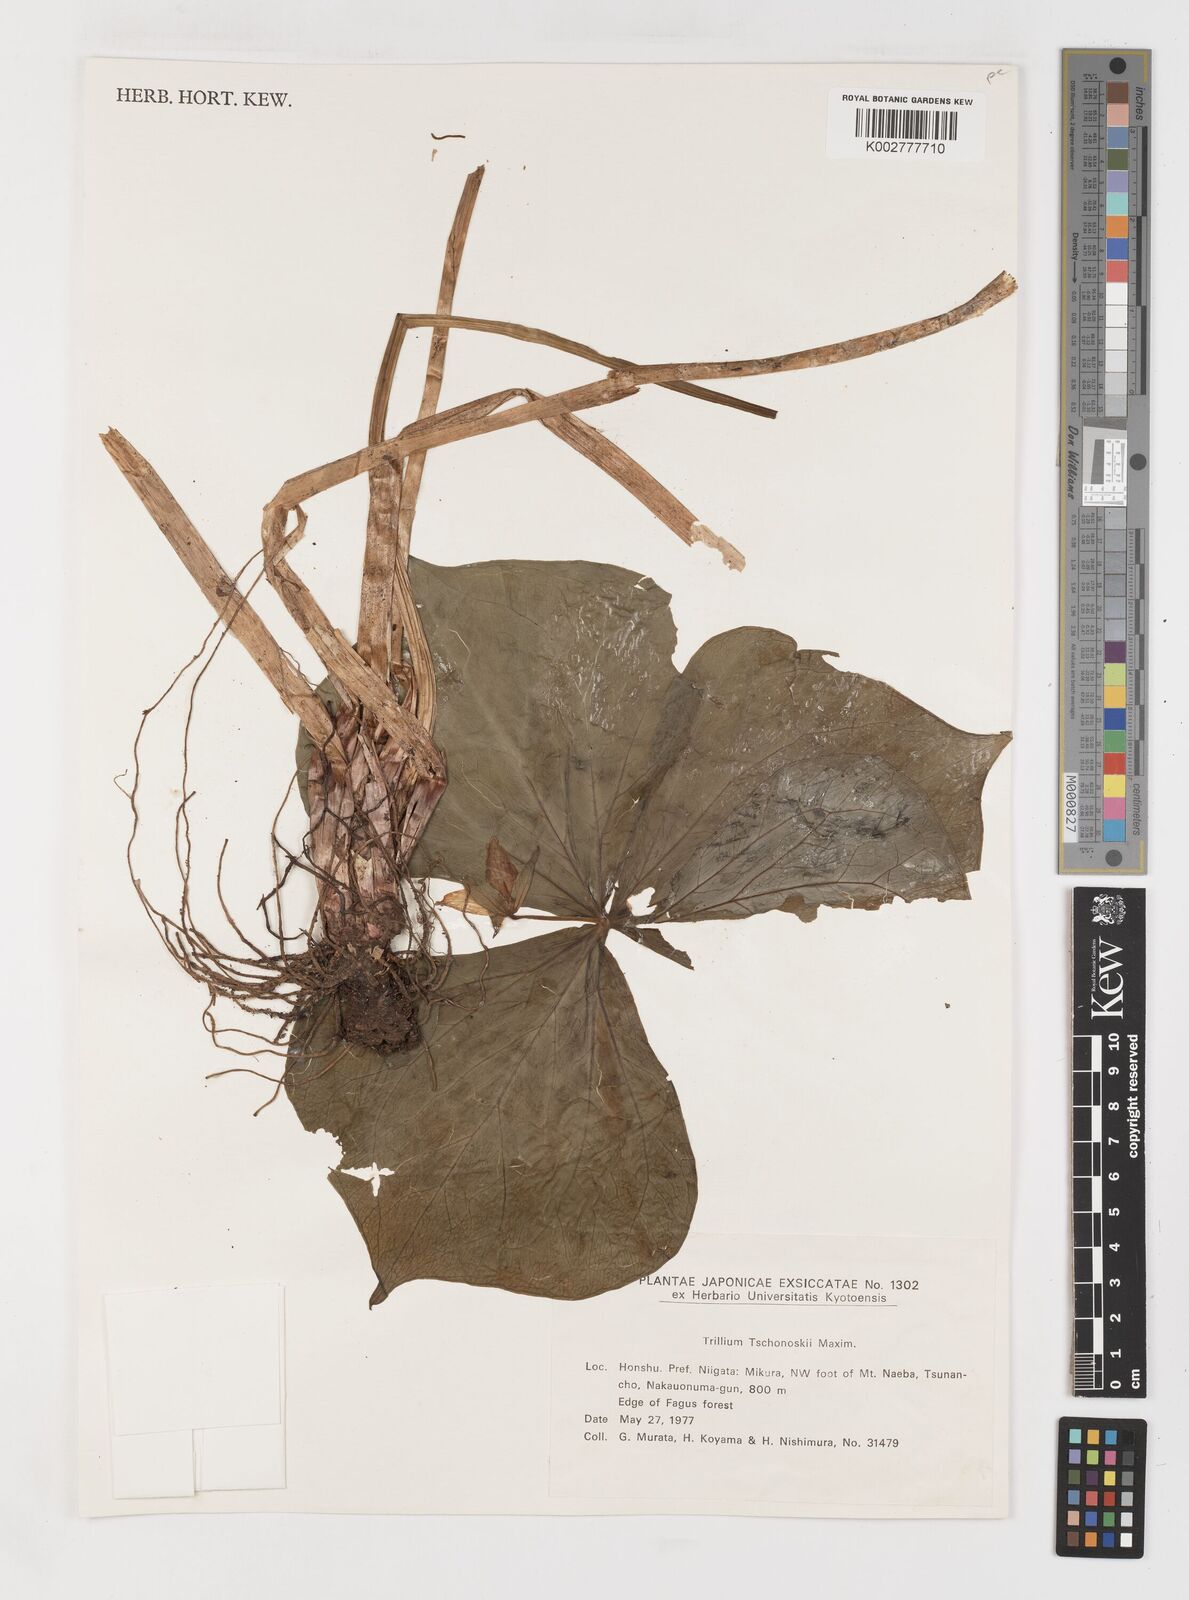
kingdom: Plantae
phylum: Tracheophyta
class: Liliopsida
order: Liliales
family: Melanthiaceae
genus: Trillium
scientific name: Trillium tschonoskii
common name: A pearl on head
